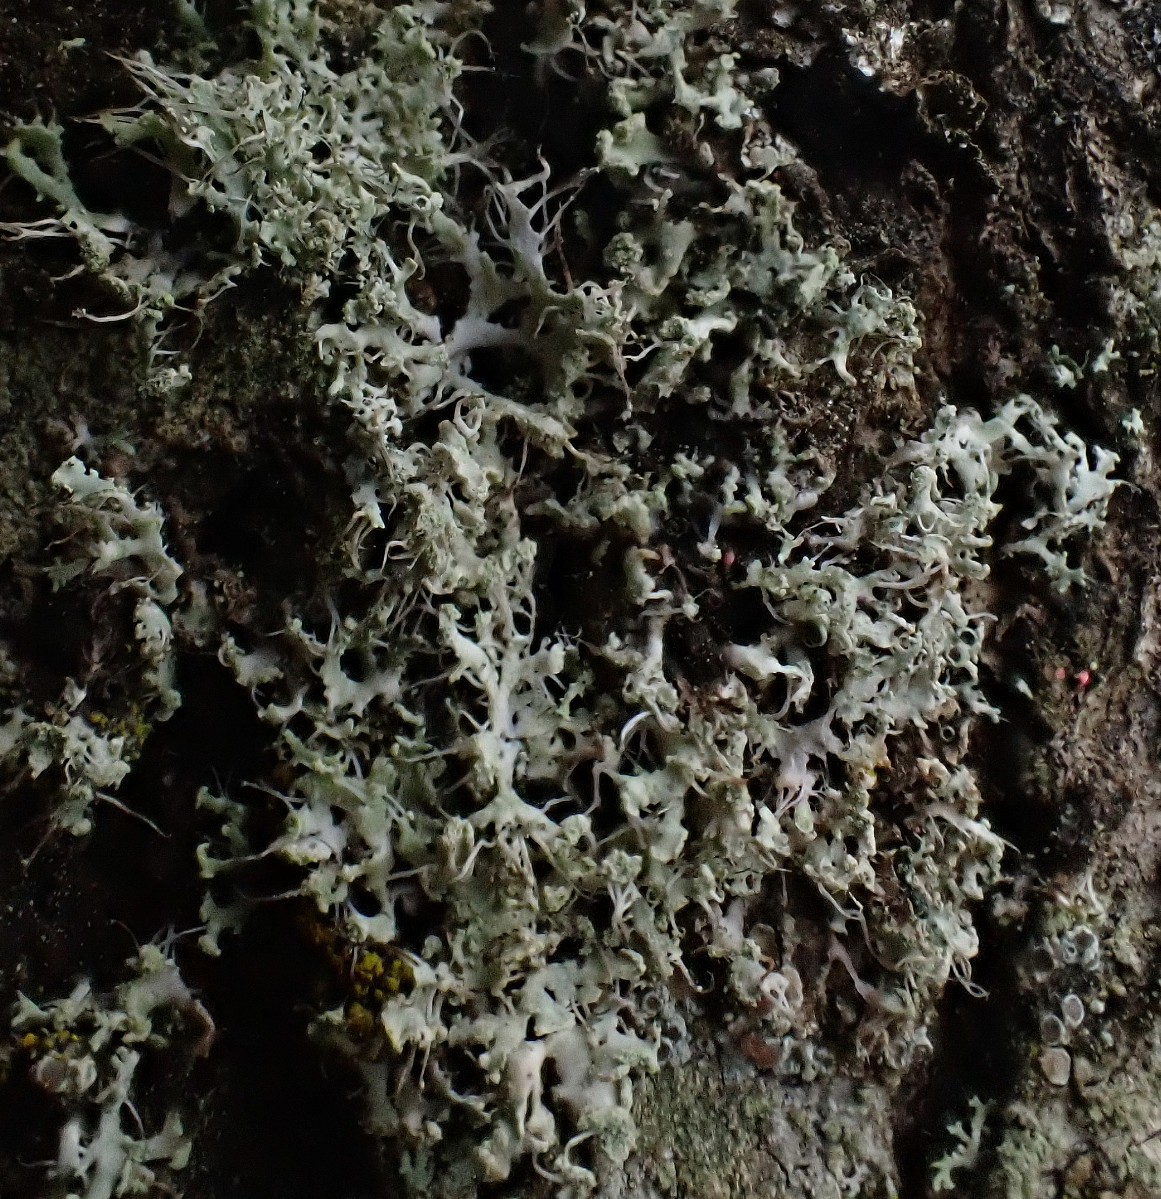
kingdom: Fungi
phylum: Ascomycota
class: Lecanoromycetes
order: Caliciales
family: Physciaceae
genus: Physcia
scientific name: Physcia tenella
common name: spæd rosetlav
